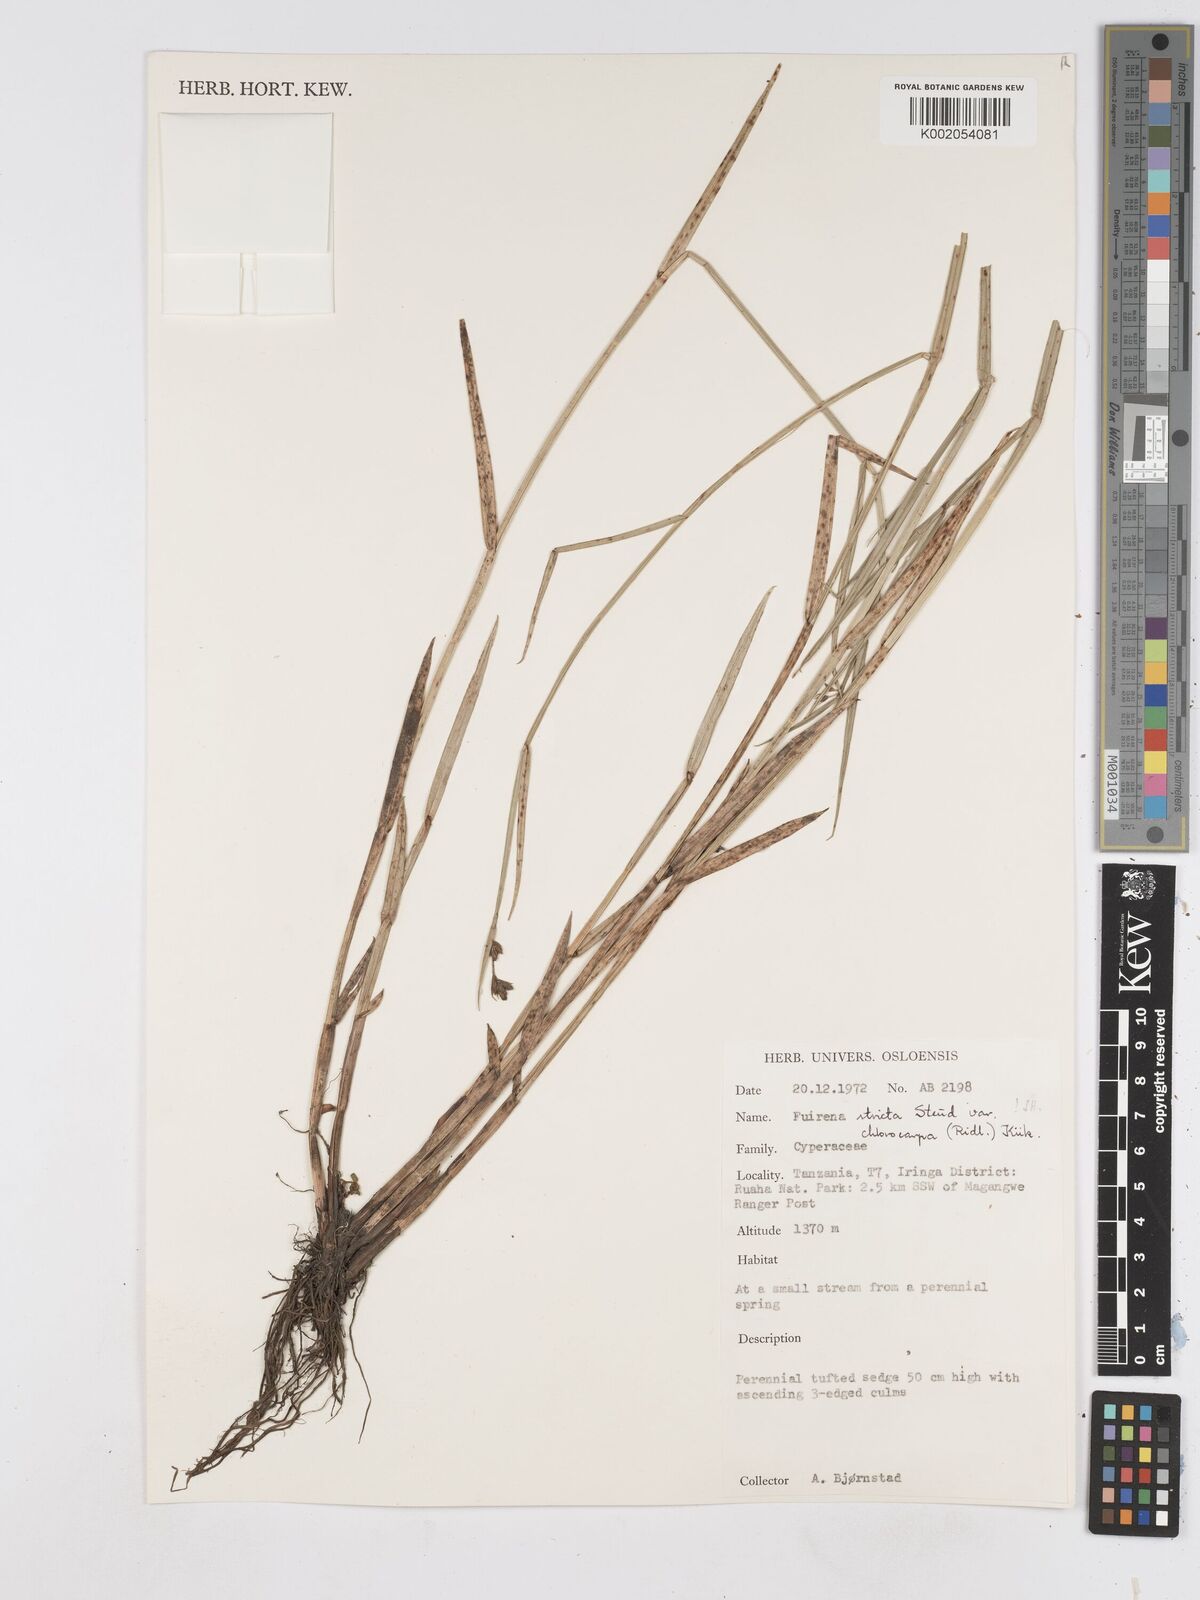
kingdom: Plantae
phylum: Tracheophyta
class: Liliopsida
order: Poales
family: Cyperaceae
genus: Fuirena
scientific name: Fuirena stricta
